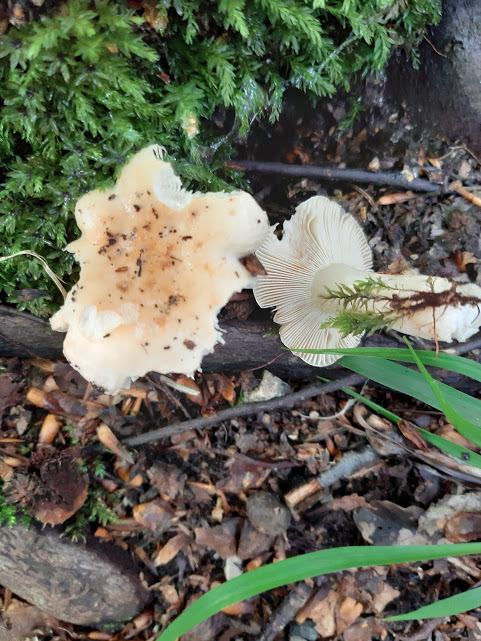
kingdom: Fungi
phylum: Basidiomycota
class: Agaricomycetes
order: Russulales
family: Russulaceae
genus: Russula
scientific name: Russula fellea
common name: galde-skørhat
